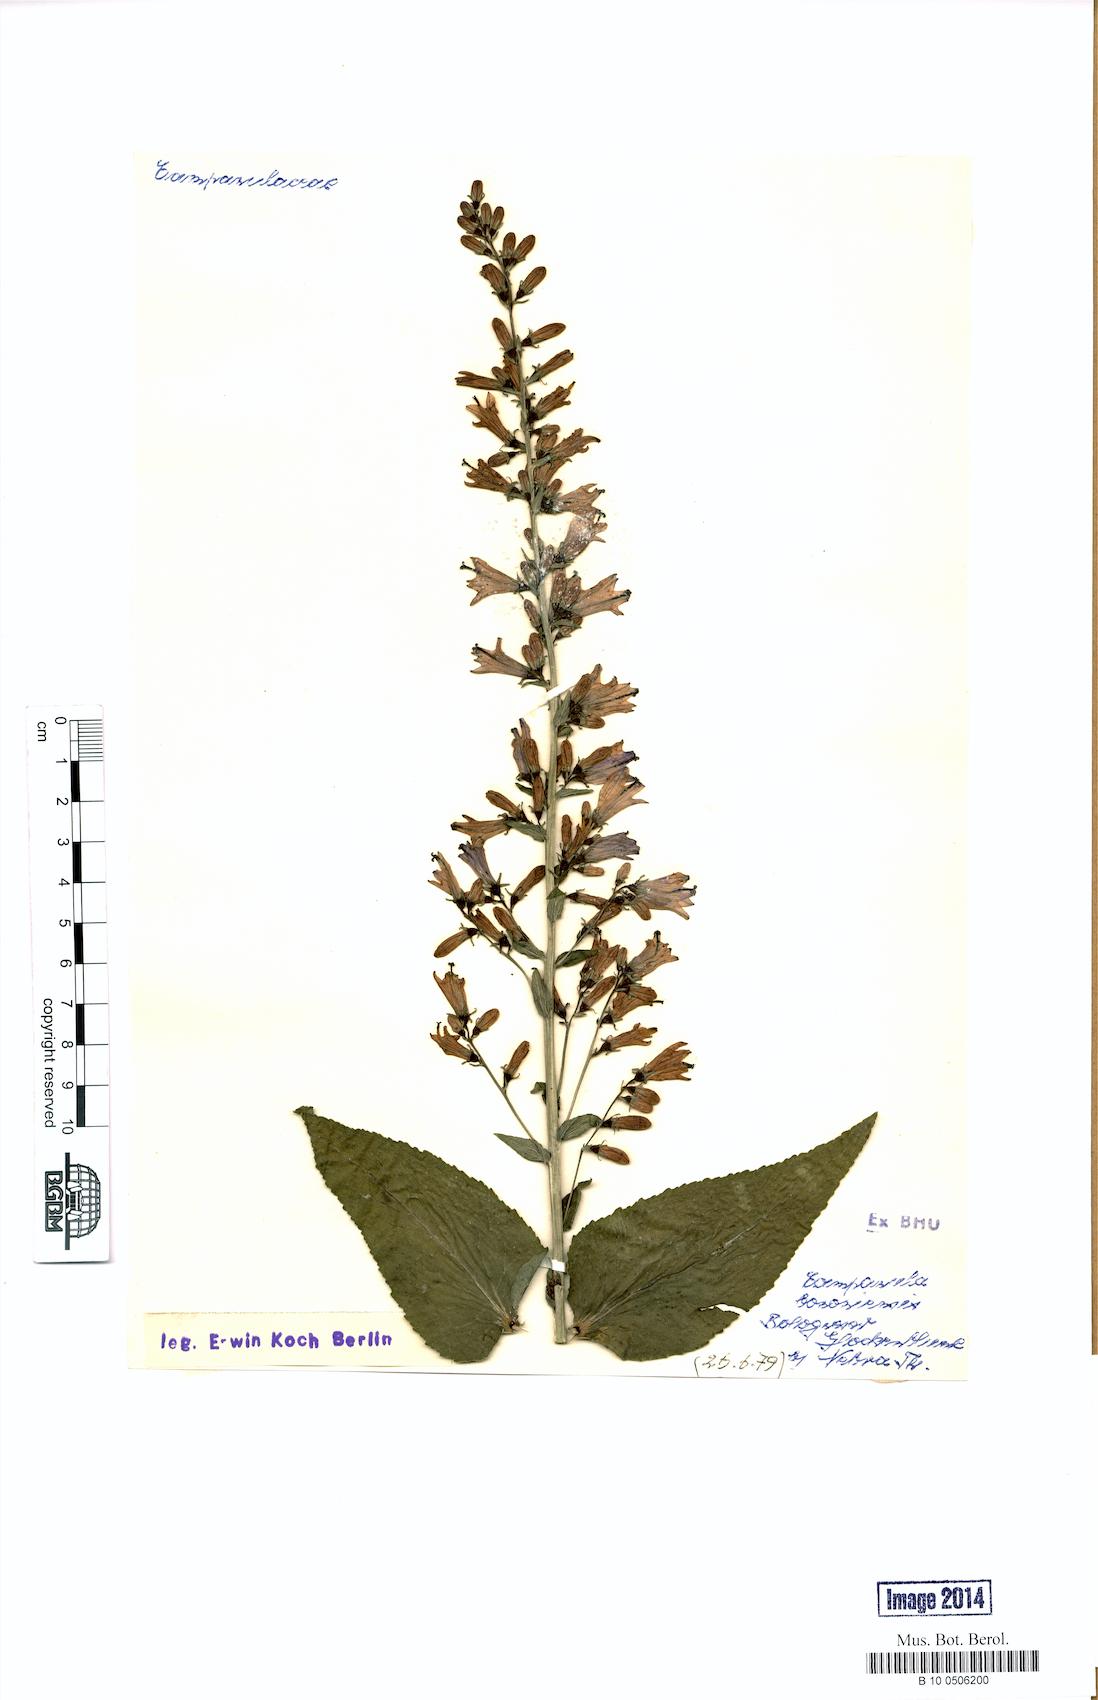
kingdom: Plantae
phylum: Tracheophyta
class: Magnoliopsida
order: Asterales
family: Campanulaceae
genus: Campanula
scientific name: Campanula bononiensis
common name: Pale bellflower
